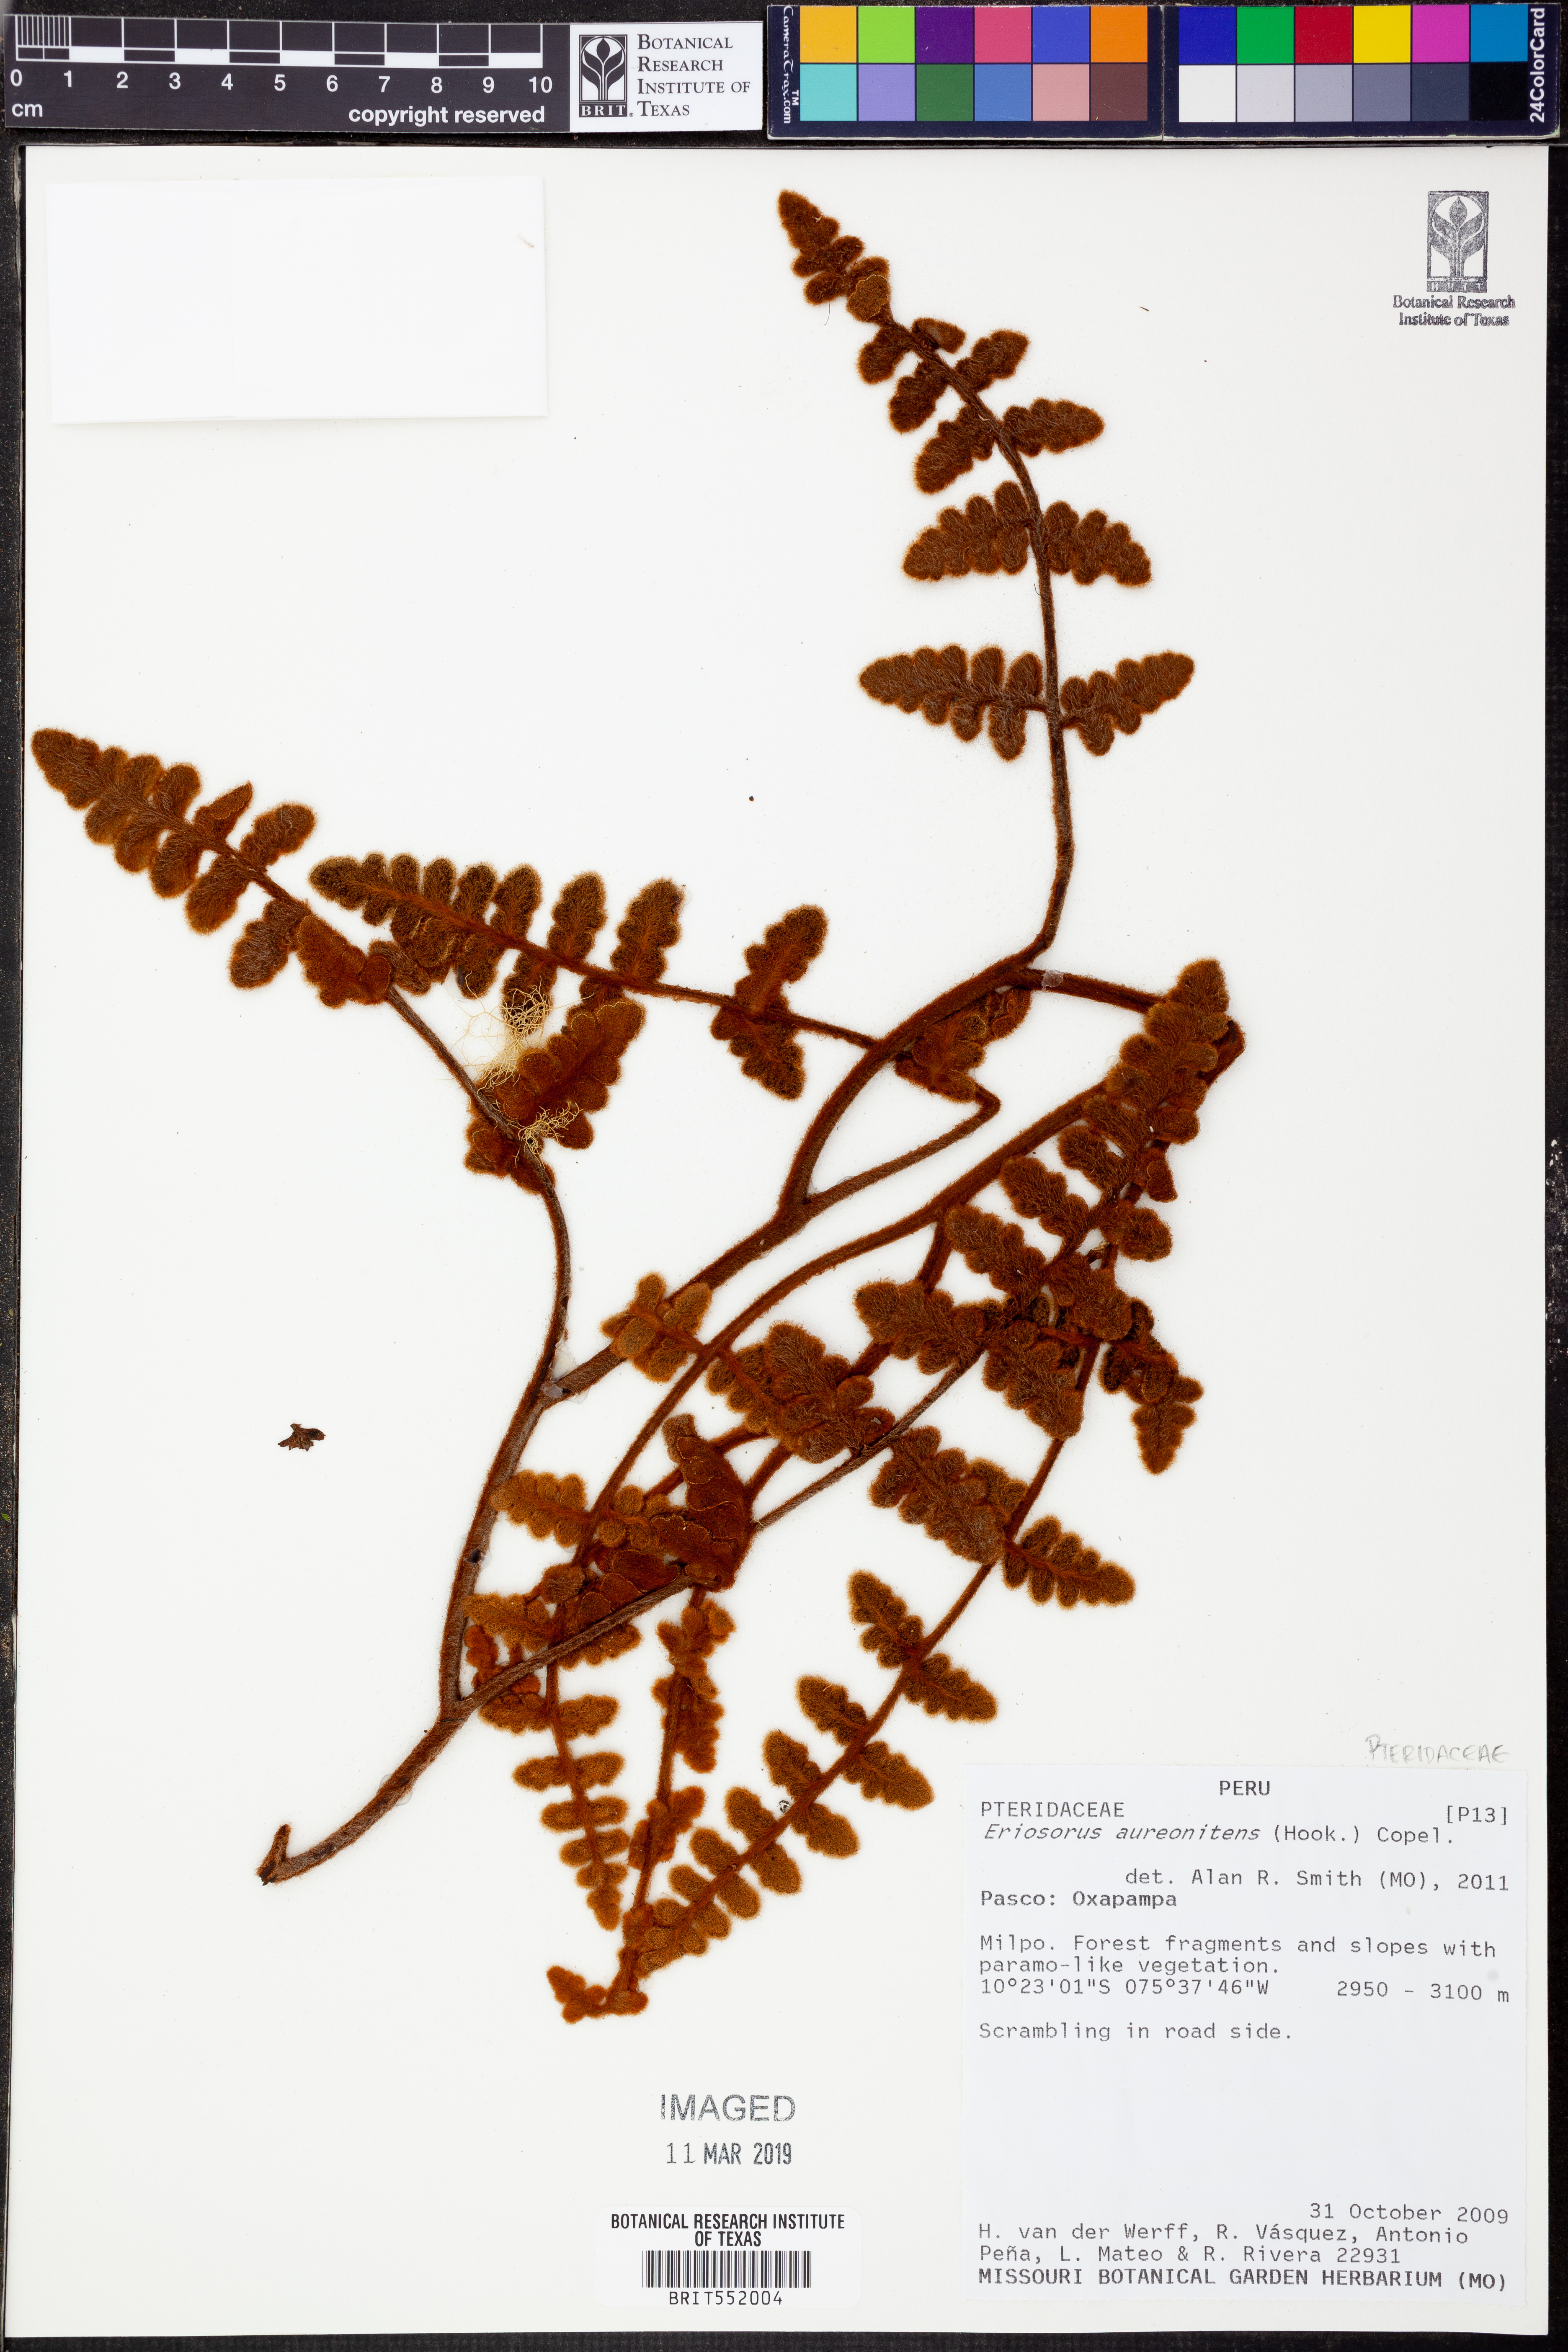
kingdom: Plantae
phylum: Tracheophyta
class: Polypodiopsida
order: Polypodiales
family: Pteridaceae
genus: Jamesonia
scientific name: Jamesonia aureonitens
